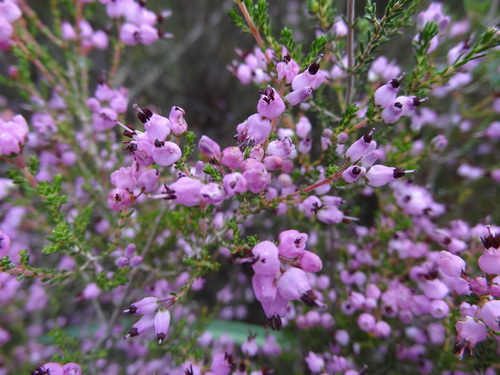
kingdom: Plantae
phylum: Tracheophyta
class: Magnoliopsida
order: Ericales
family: Ericaceae
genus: Erica
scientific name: Erica umbellata
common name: Dwarf spanish heath
